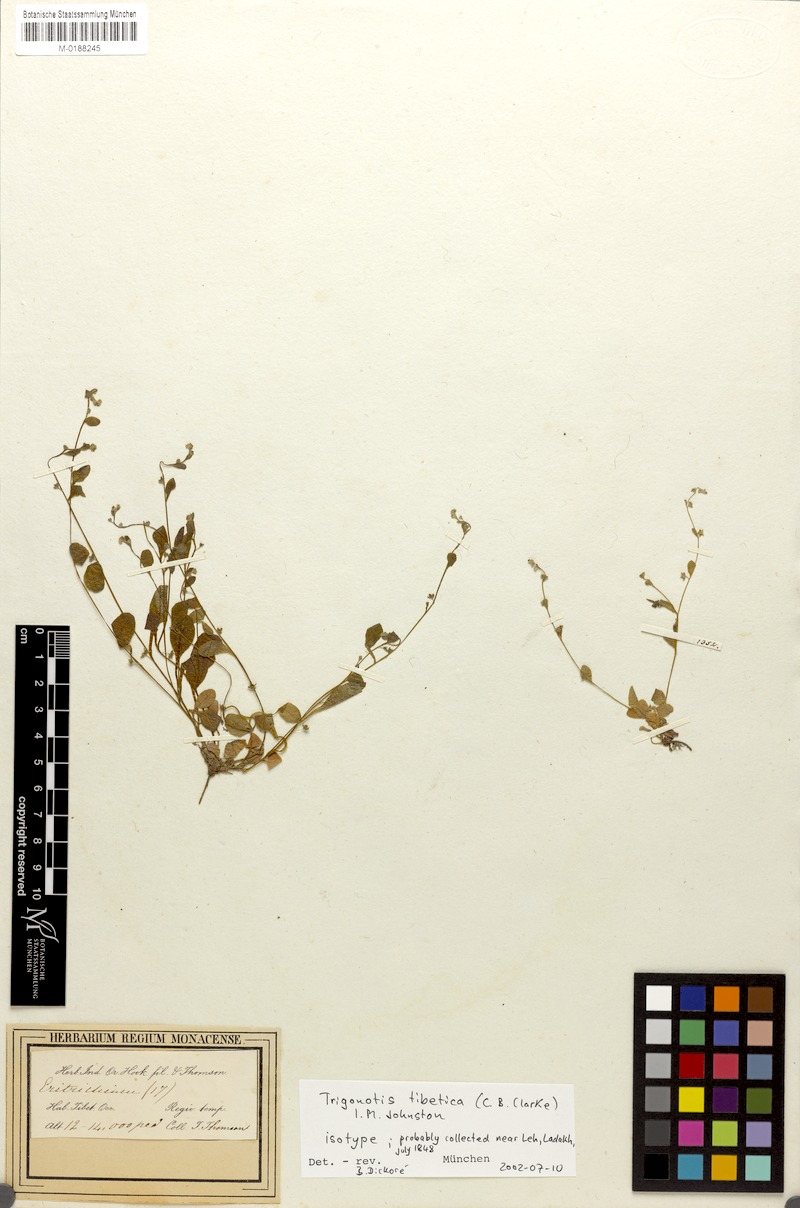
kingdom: Plantae
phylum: Tracheophyta
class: Magnoliopsida
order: Boraginales
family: Boraginaceae
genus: Trigonotis
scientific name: Trigonotis tibetica
